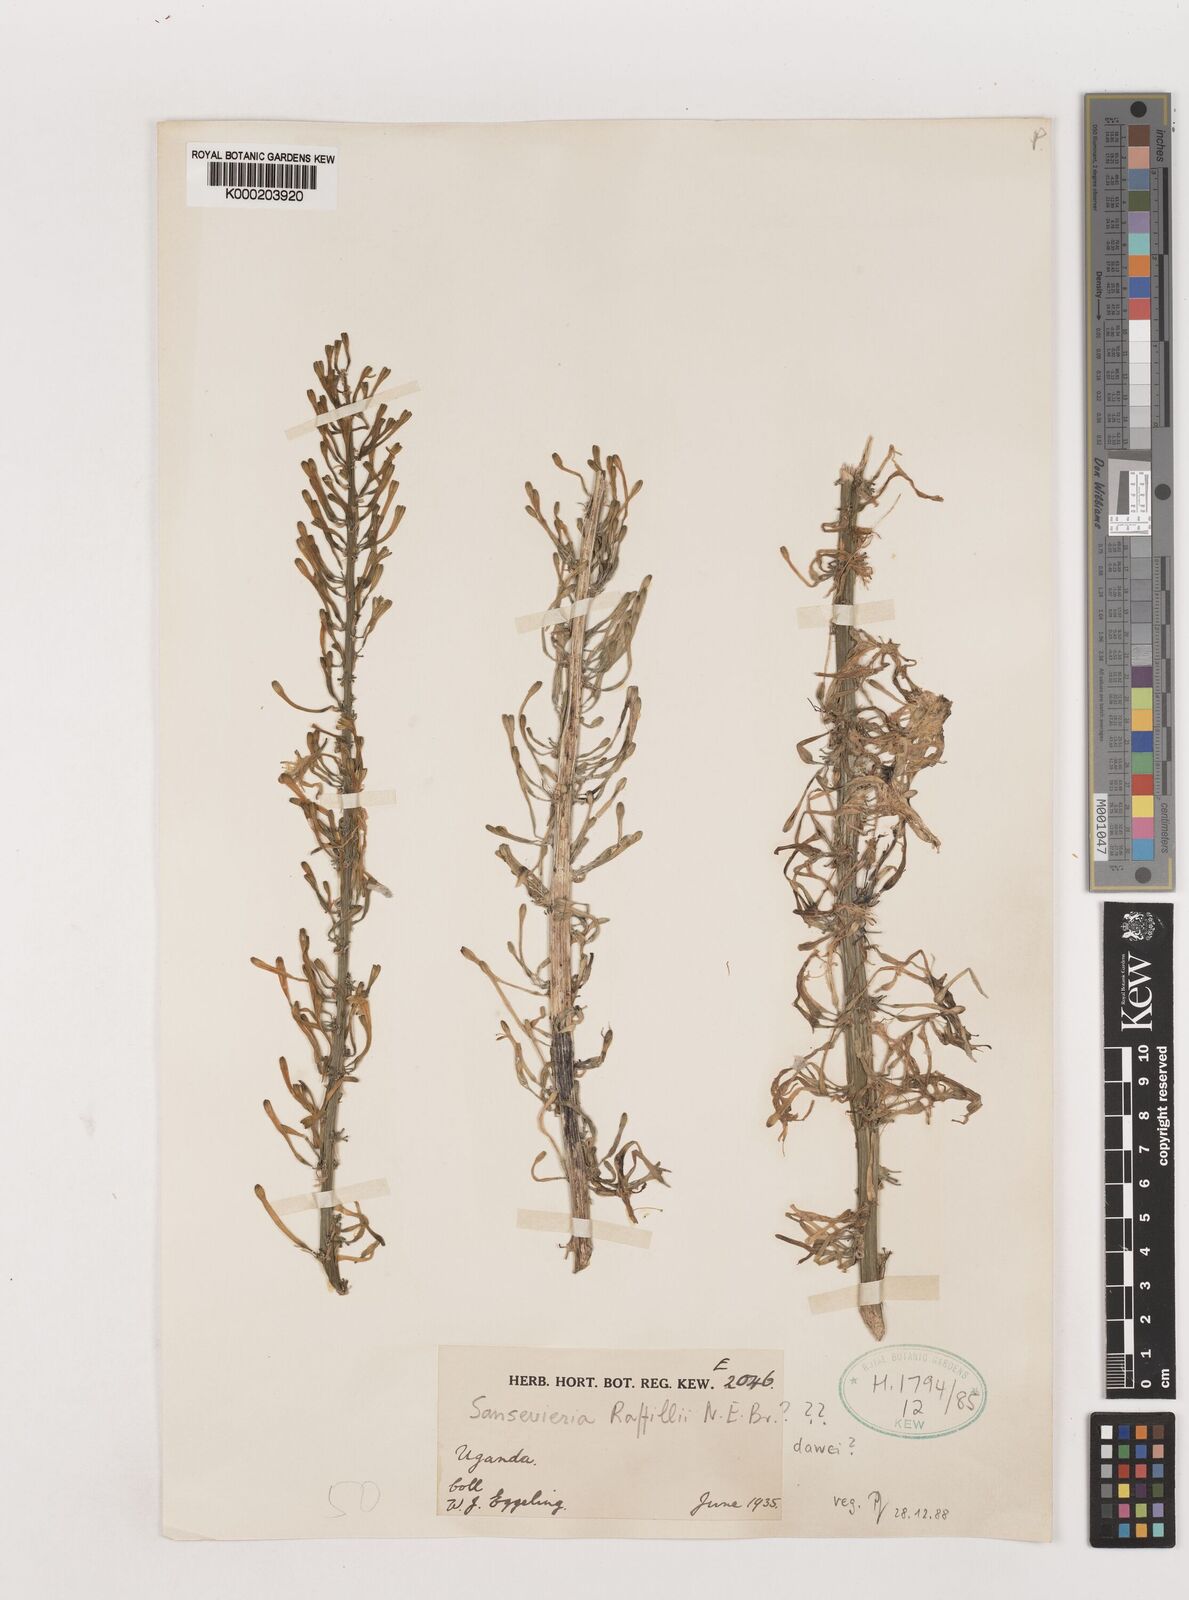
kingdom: Plantae
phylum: Tracheophyta
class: Liliopsida
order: Asparagales
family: Asparagaceae
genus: Dracaena
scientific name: Dracaena raffillii
